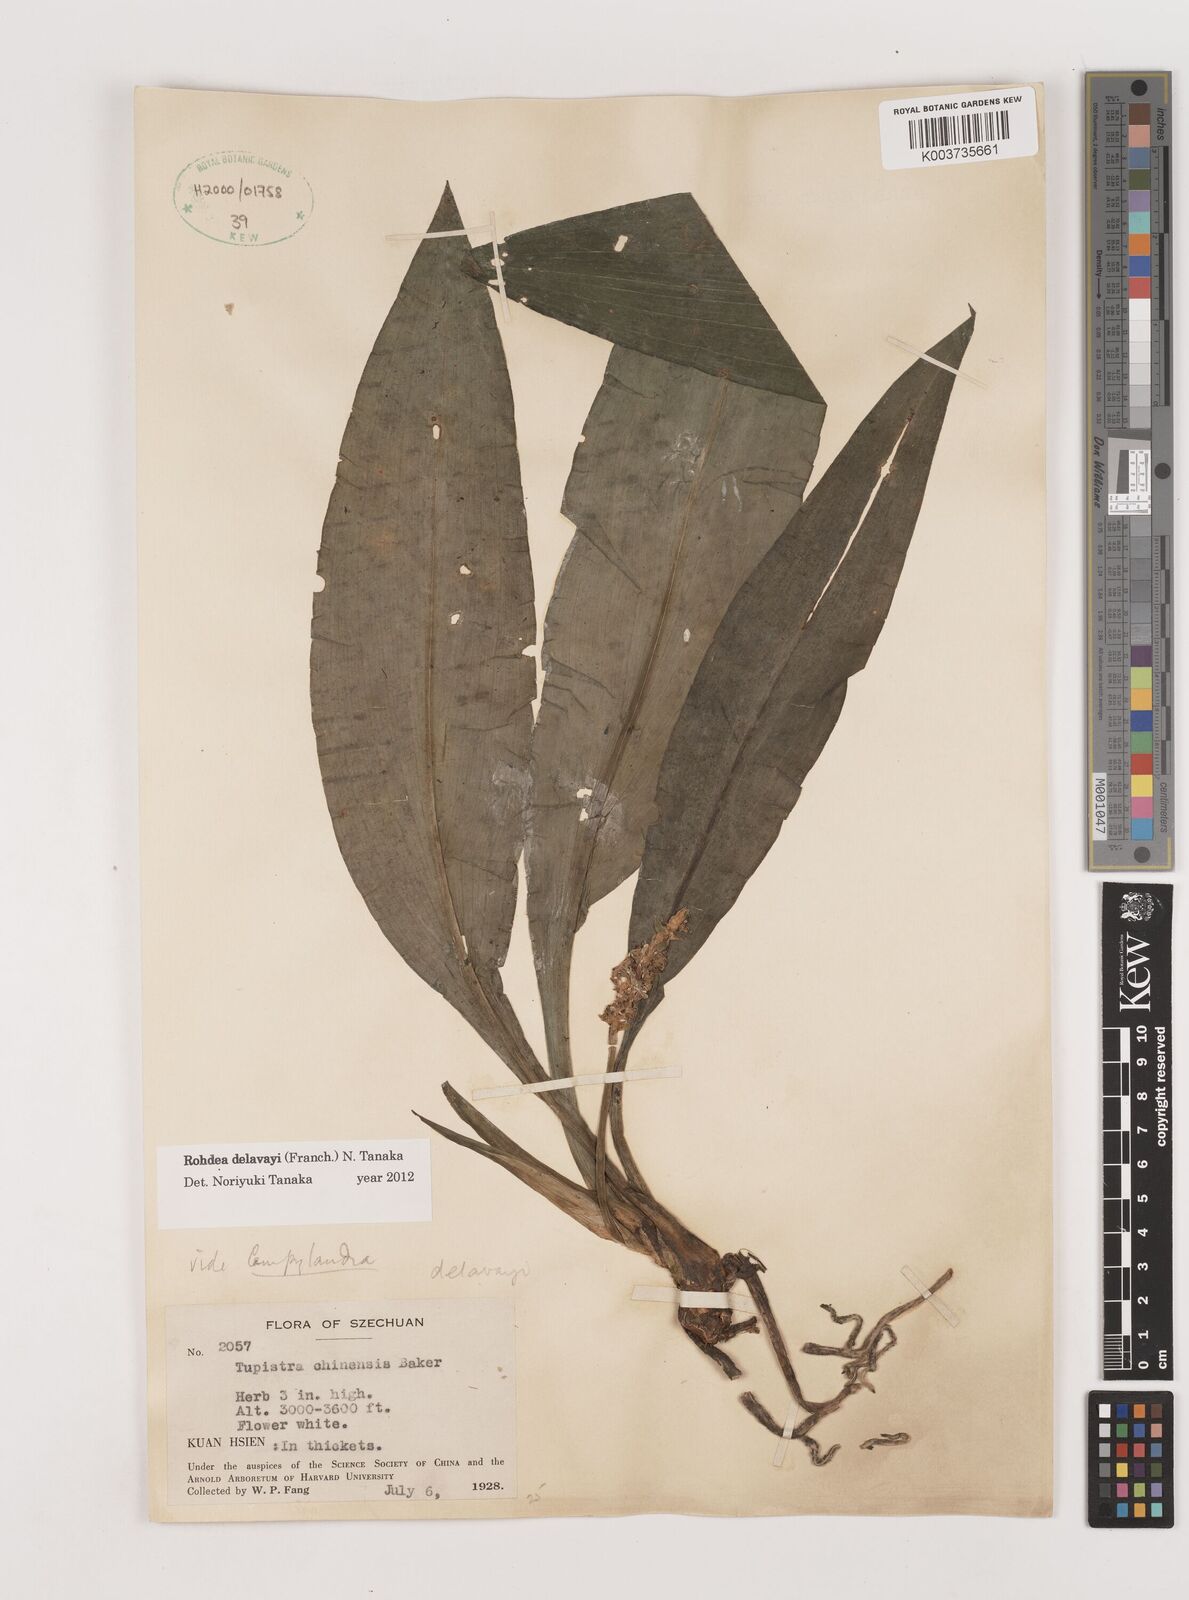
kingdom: Plantae
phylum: Tracheophyta
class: Liliopsida
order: Asparagales
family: Asparagaceae
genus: Rohdea
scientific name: Rohdea delavayi
